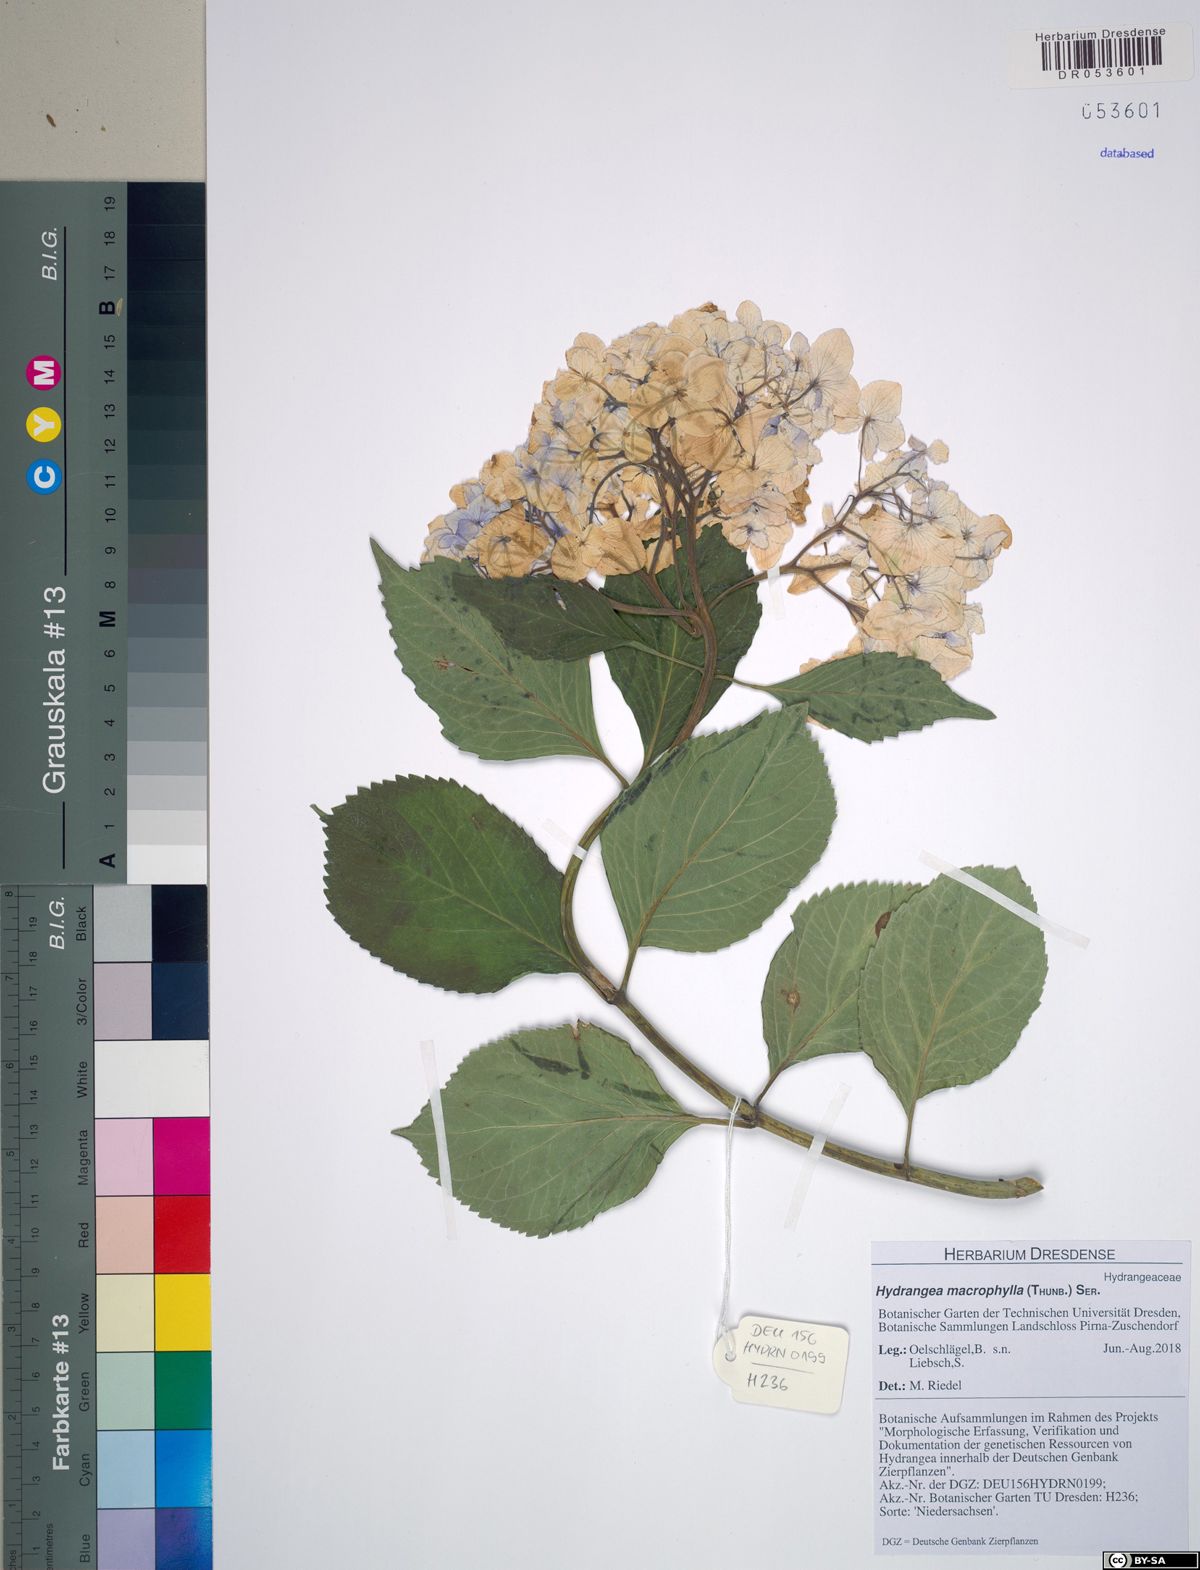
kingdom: Plantae
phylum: Tracheophyta
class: Magnoliopsida
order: Cornales
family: Hydrangeaceae
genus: Hydrangea
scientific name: Hydrangea macrophylla
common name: Hydrangea
